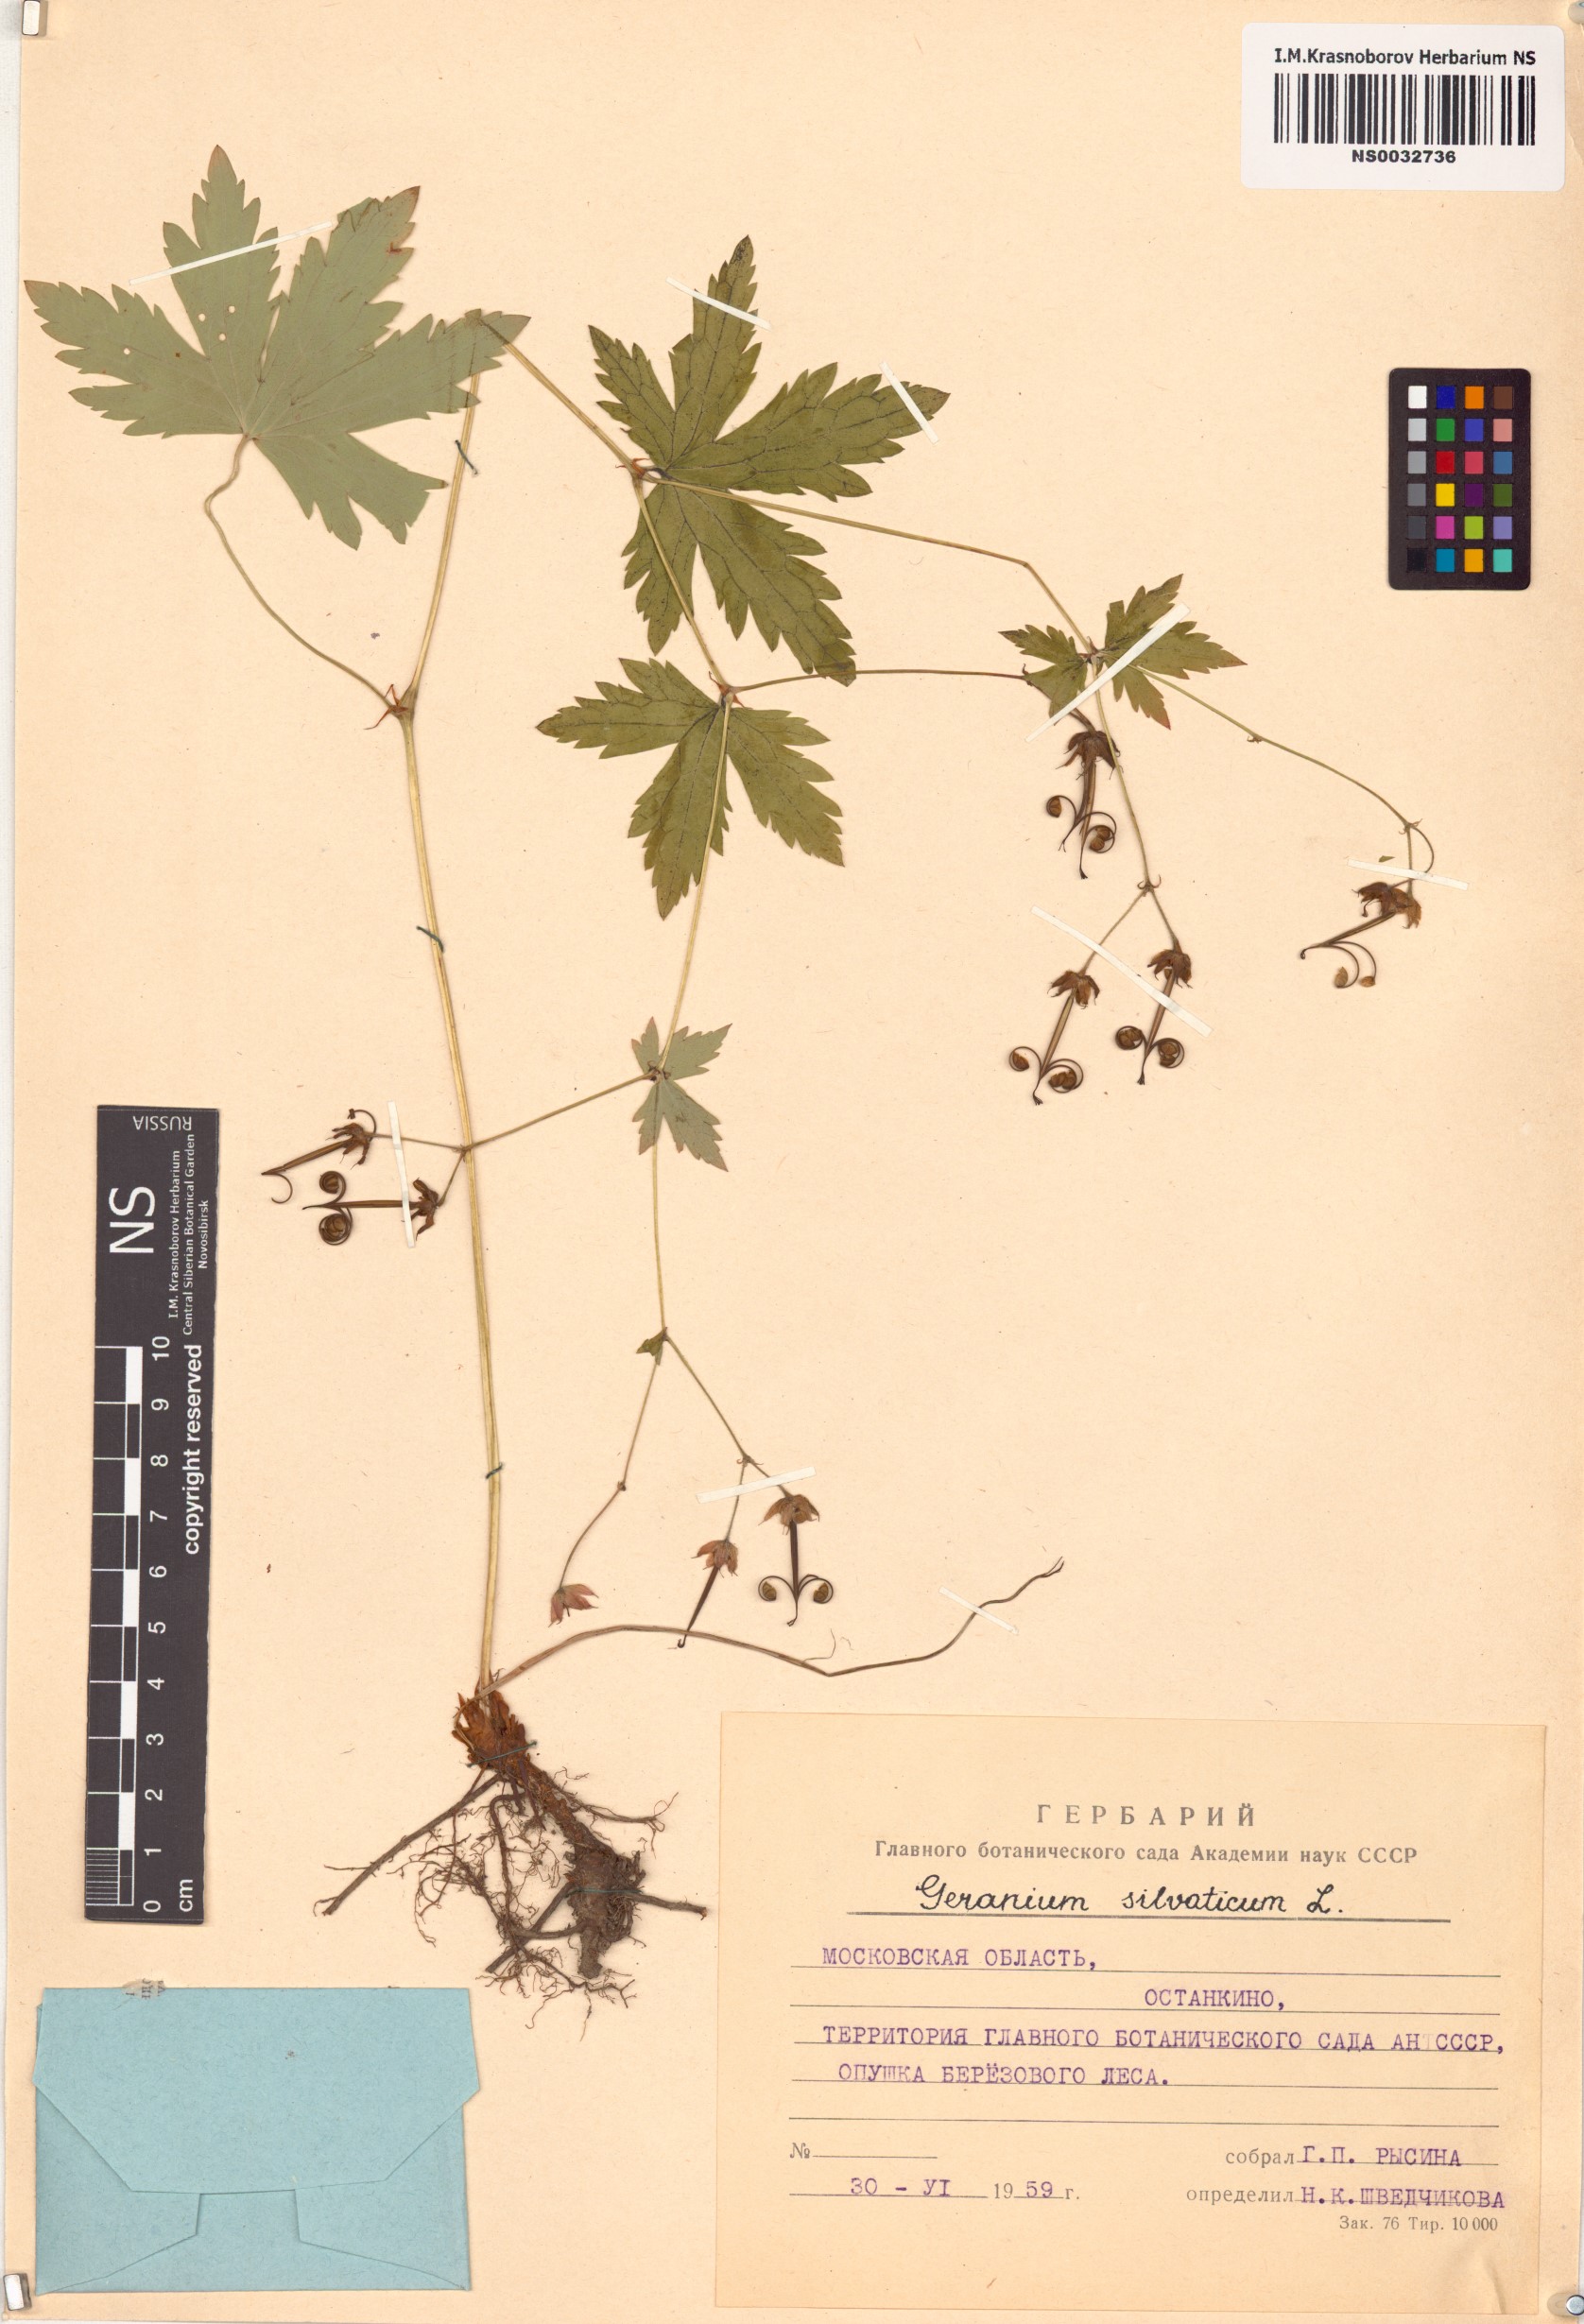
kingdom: Plantae
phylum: Tracheophyta
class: Magnoliopsida
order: Geraniales
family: Geraniaceae
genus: Geranium
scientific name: Geranium sylvaticum
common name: Wood crane's-bill
